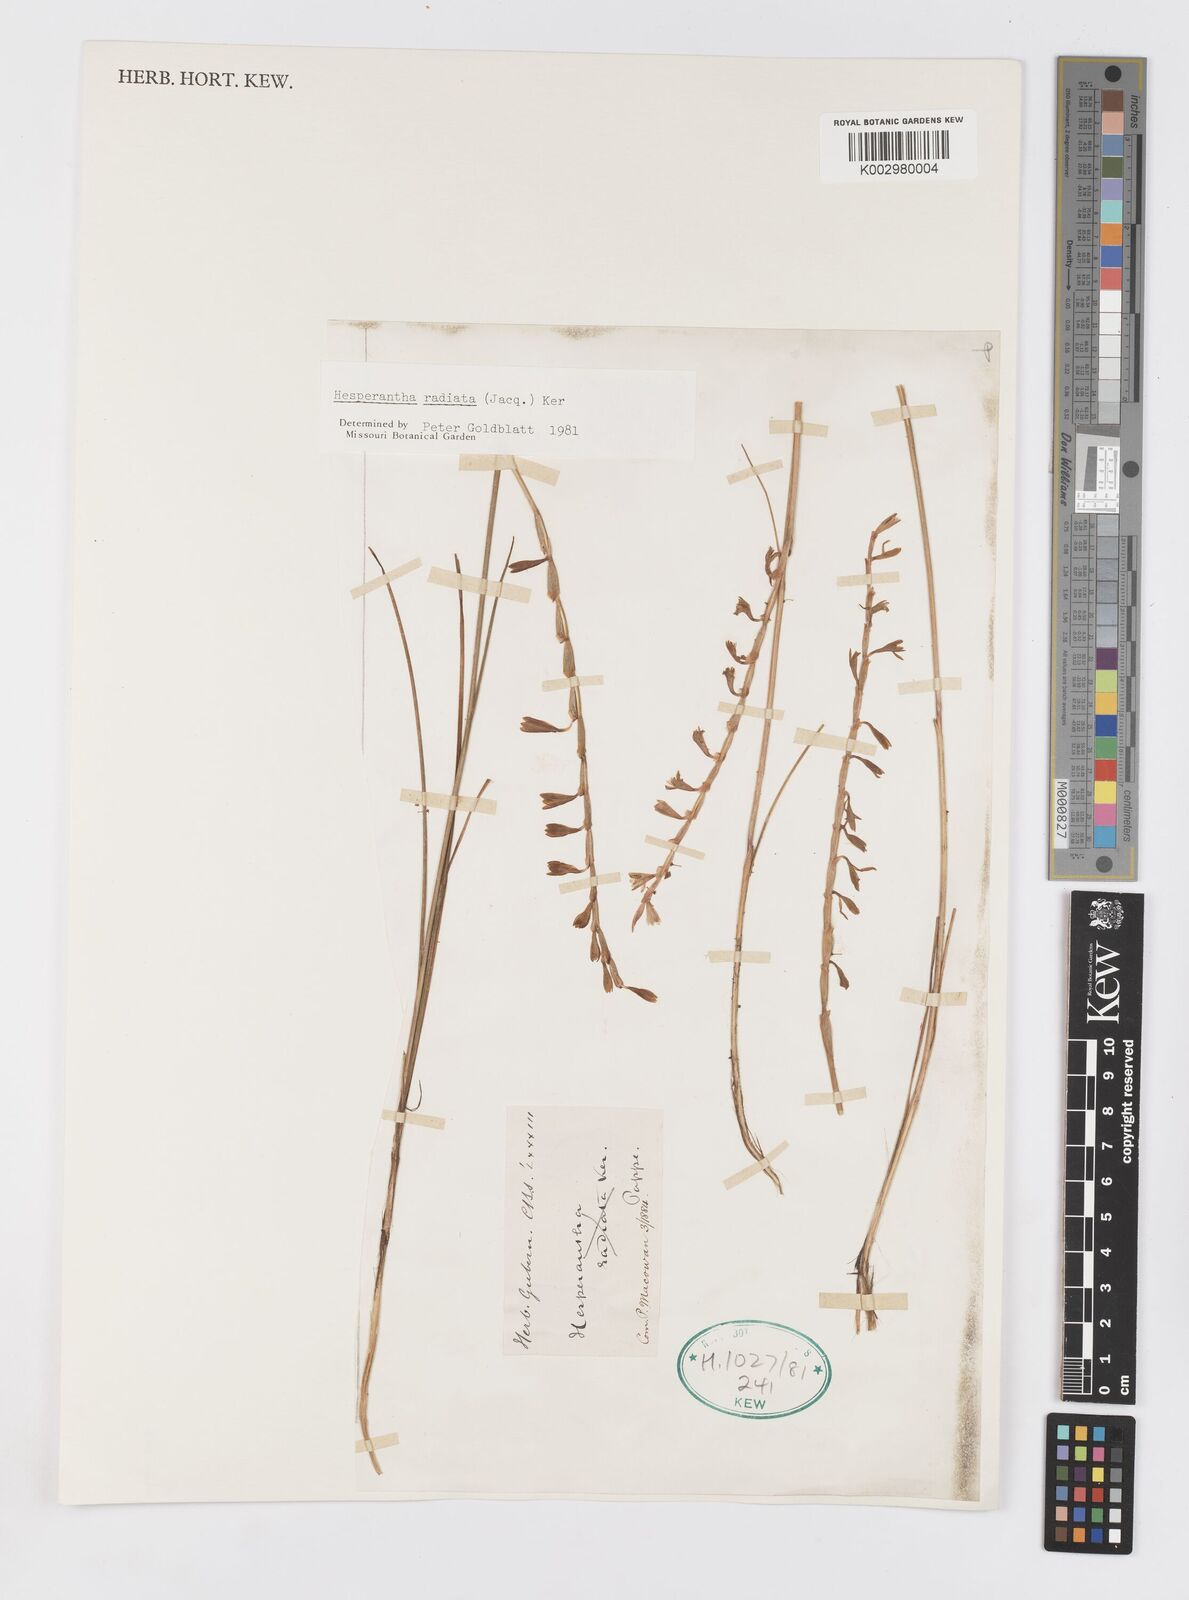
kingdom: Plantae
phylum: Tracheophyta
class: Liliopsida
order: Asparagales
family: Iridaceae
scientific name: Iridaceae
